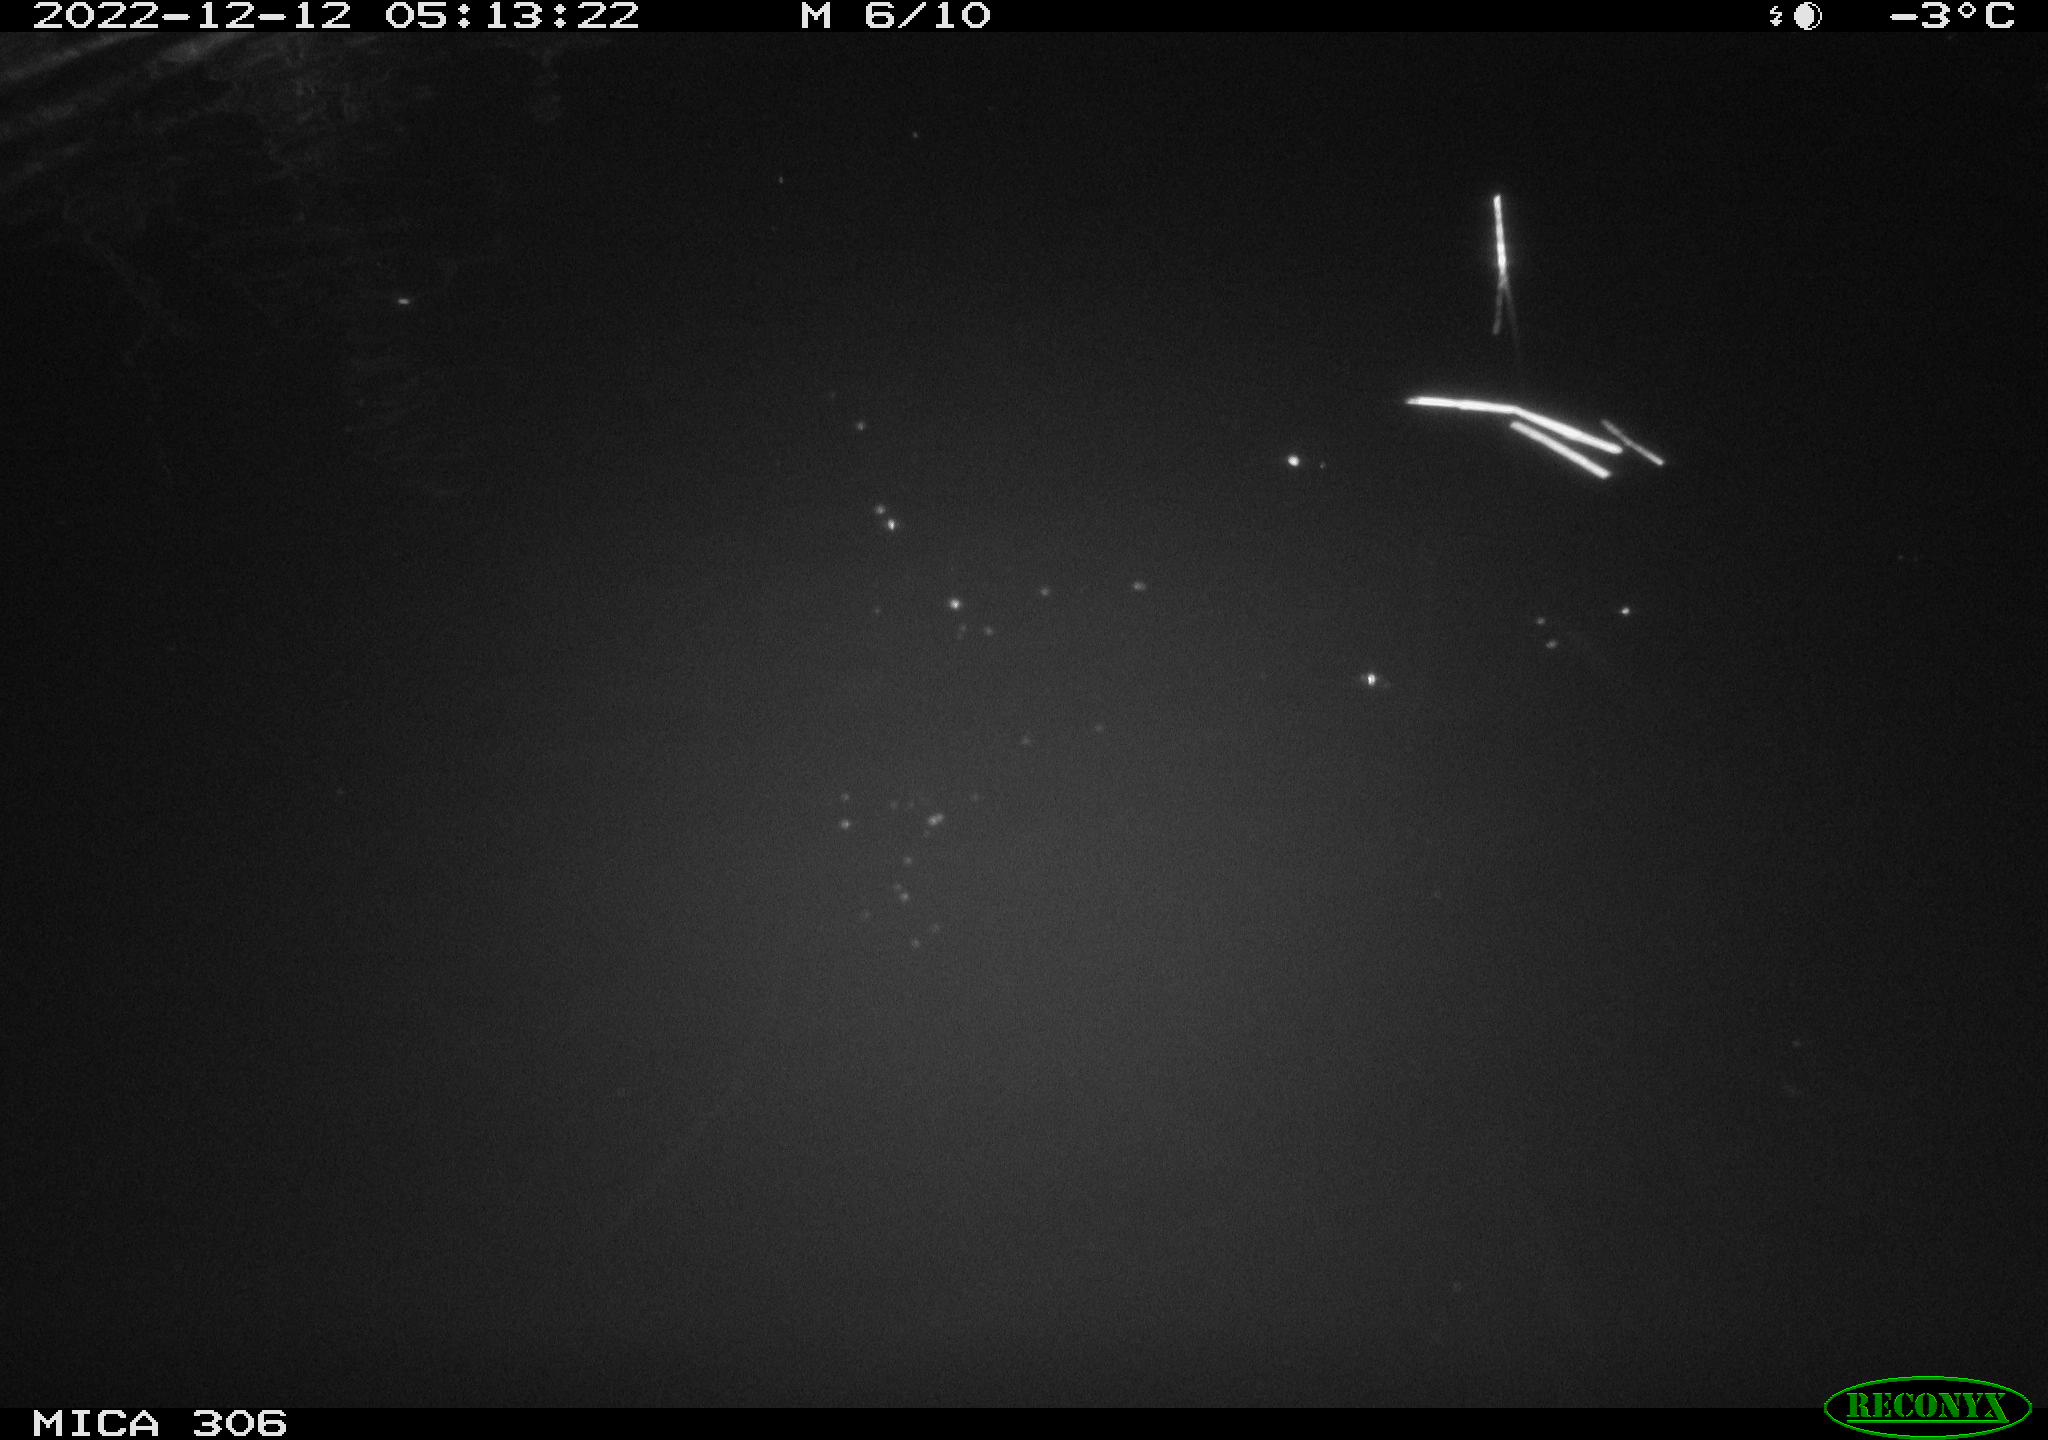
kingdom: Animalia
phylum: Chordata
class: Aves
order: Anseriformes
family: Anatidae
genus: Anas
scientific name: Anas
